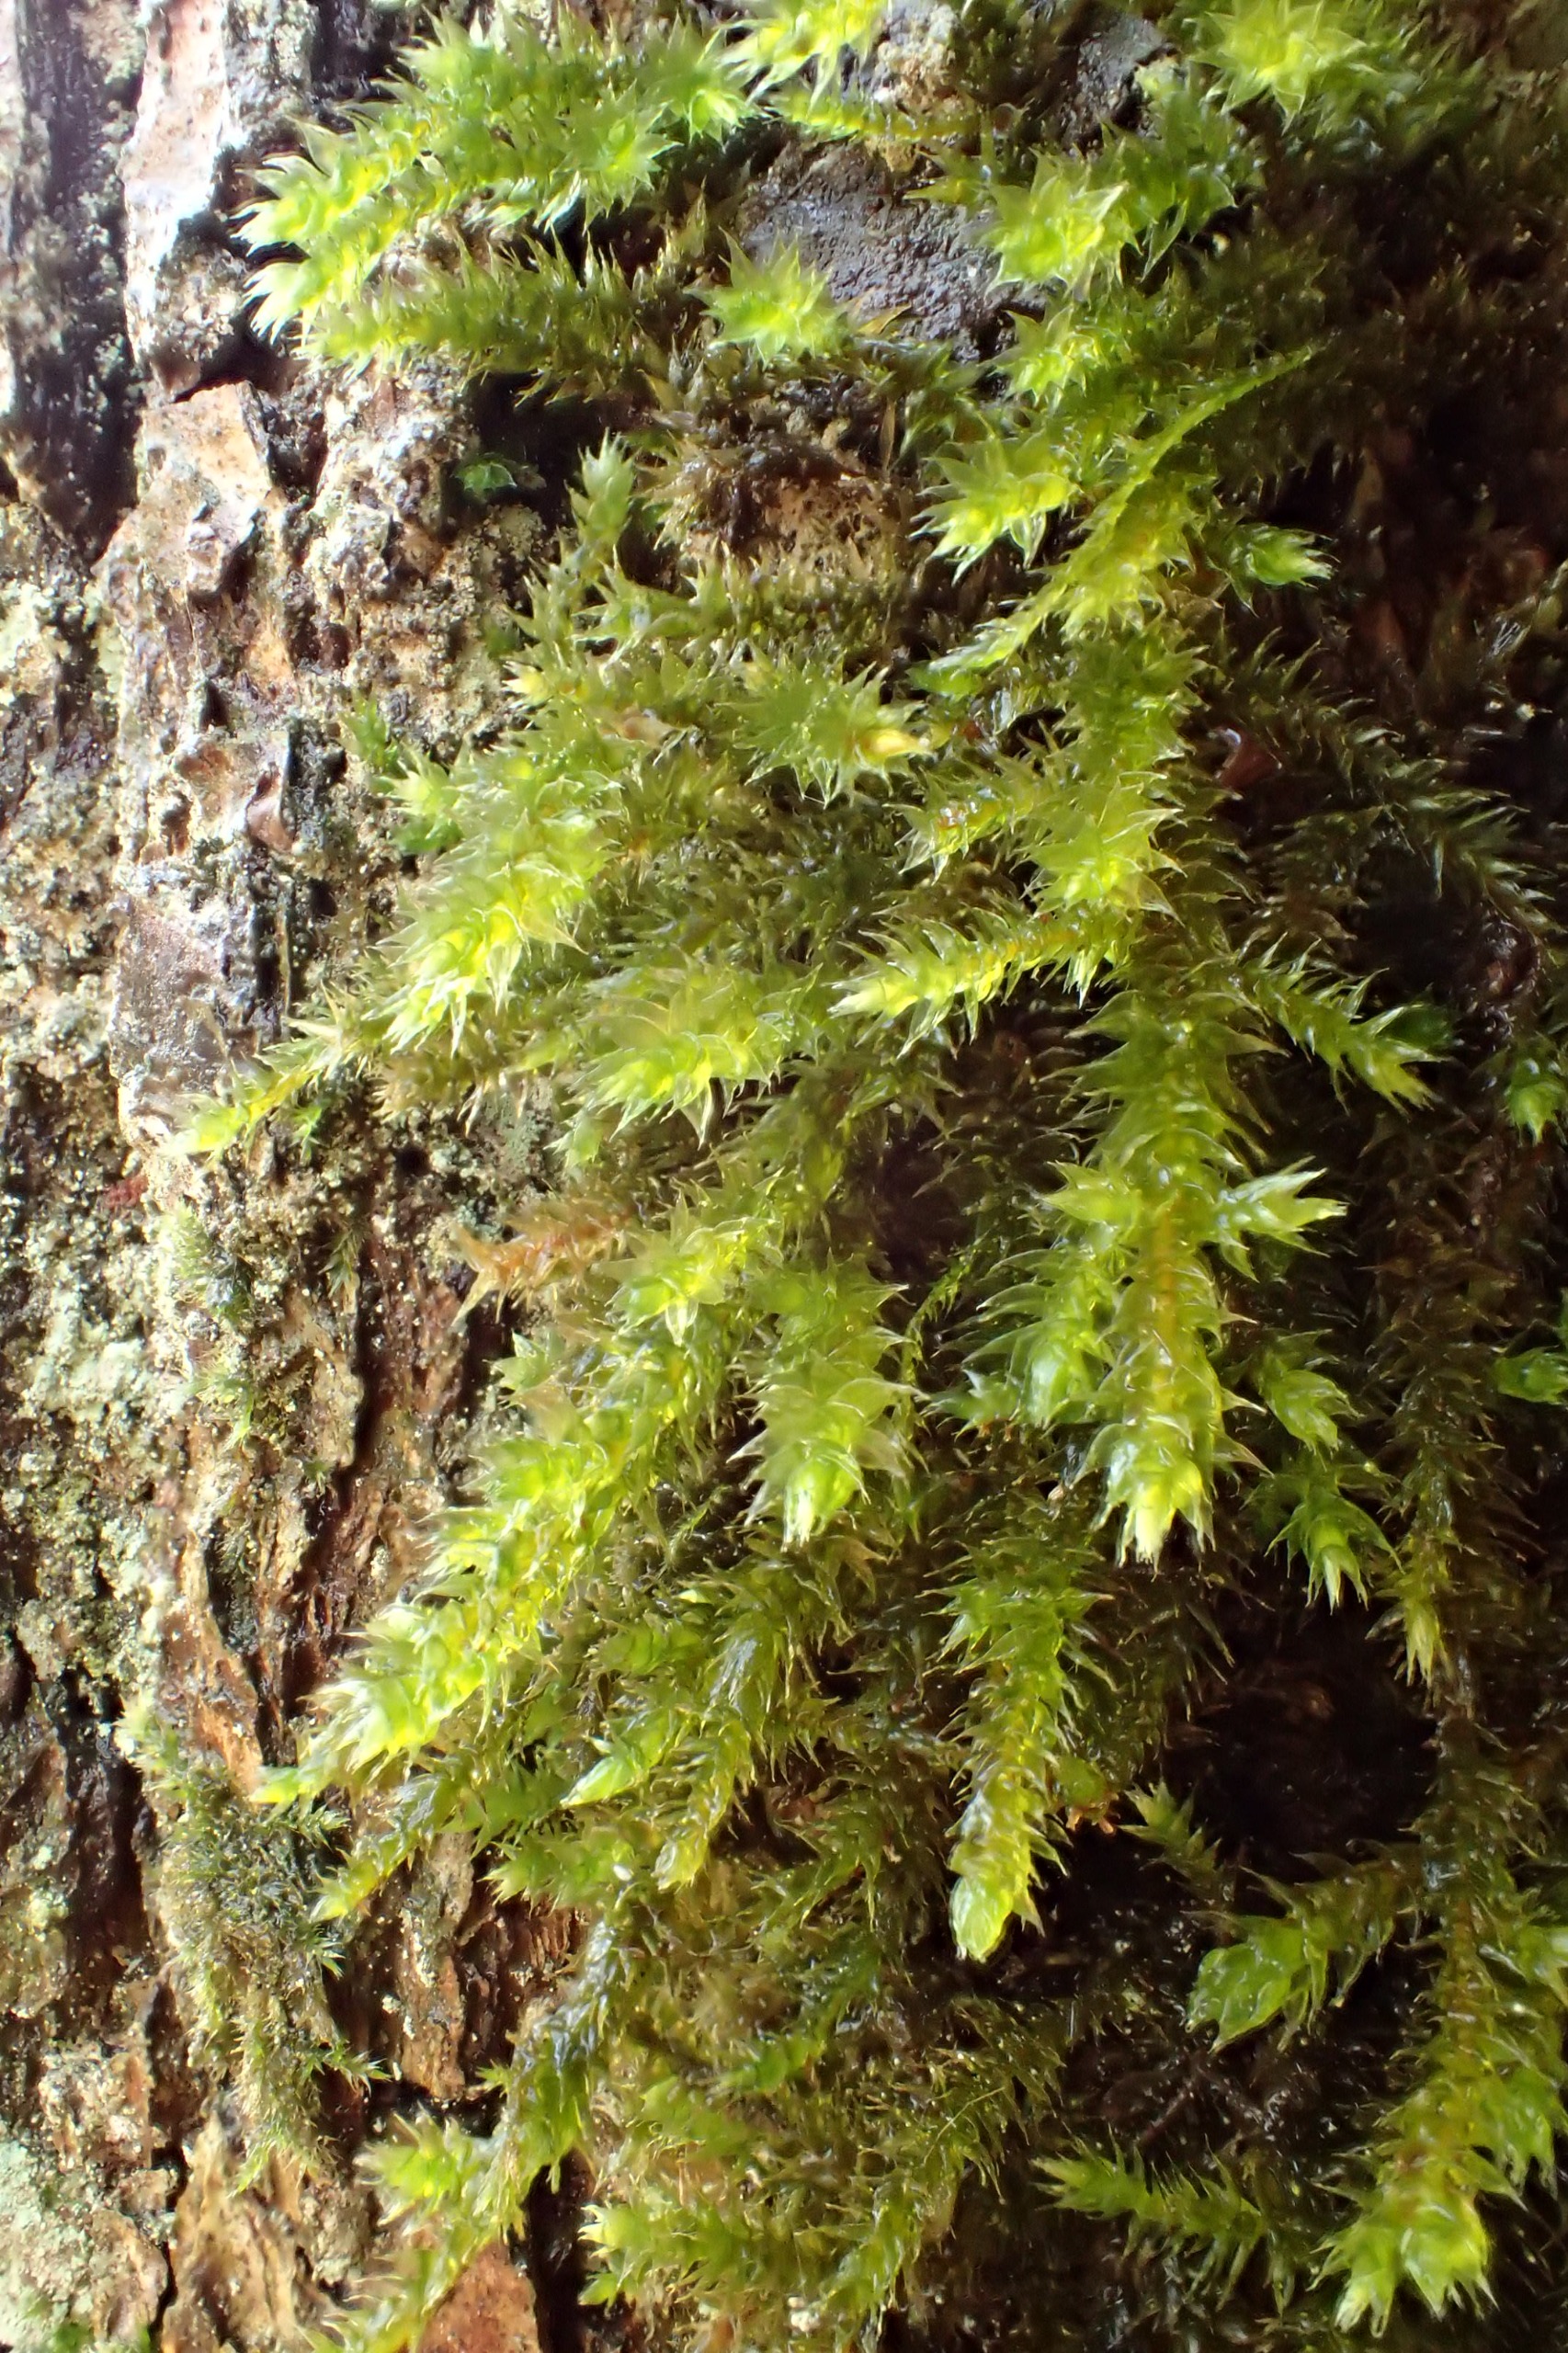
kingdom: Plantae
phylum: Bryophyta
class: Bryopsida
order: Hypnales
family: Antitrichiaceae
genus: Antitrichia
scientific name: Antitrichia curtipendula
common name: Åben krogtand
